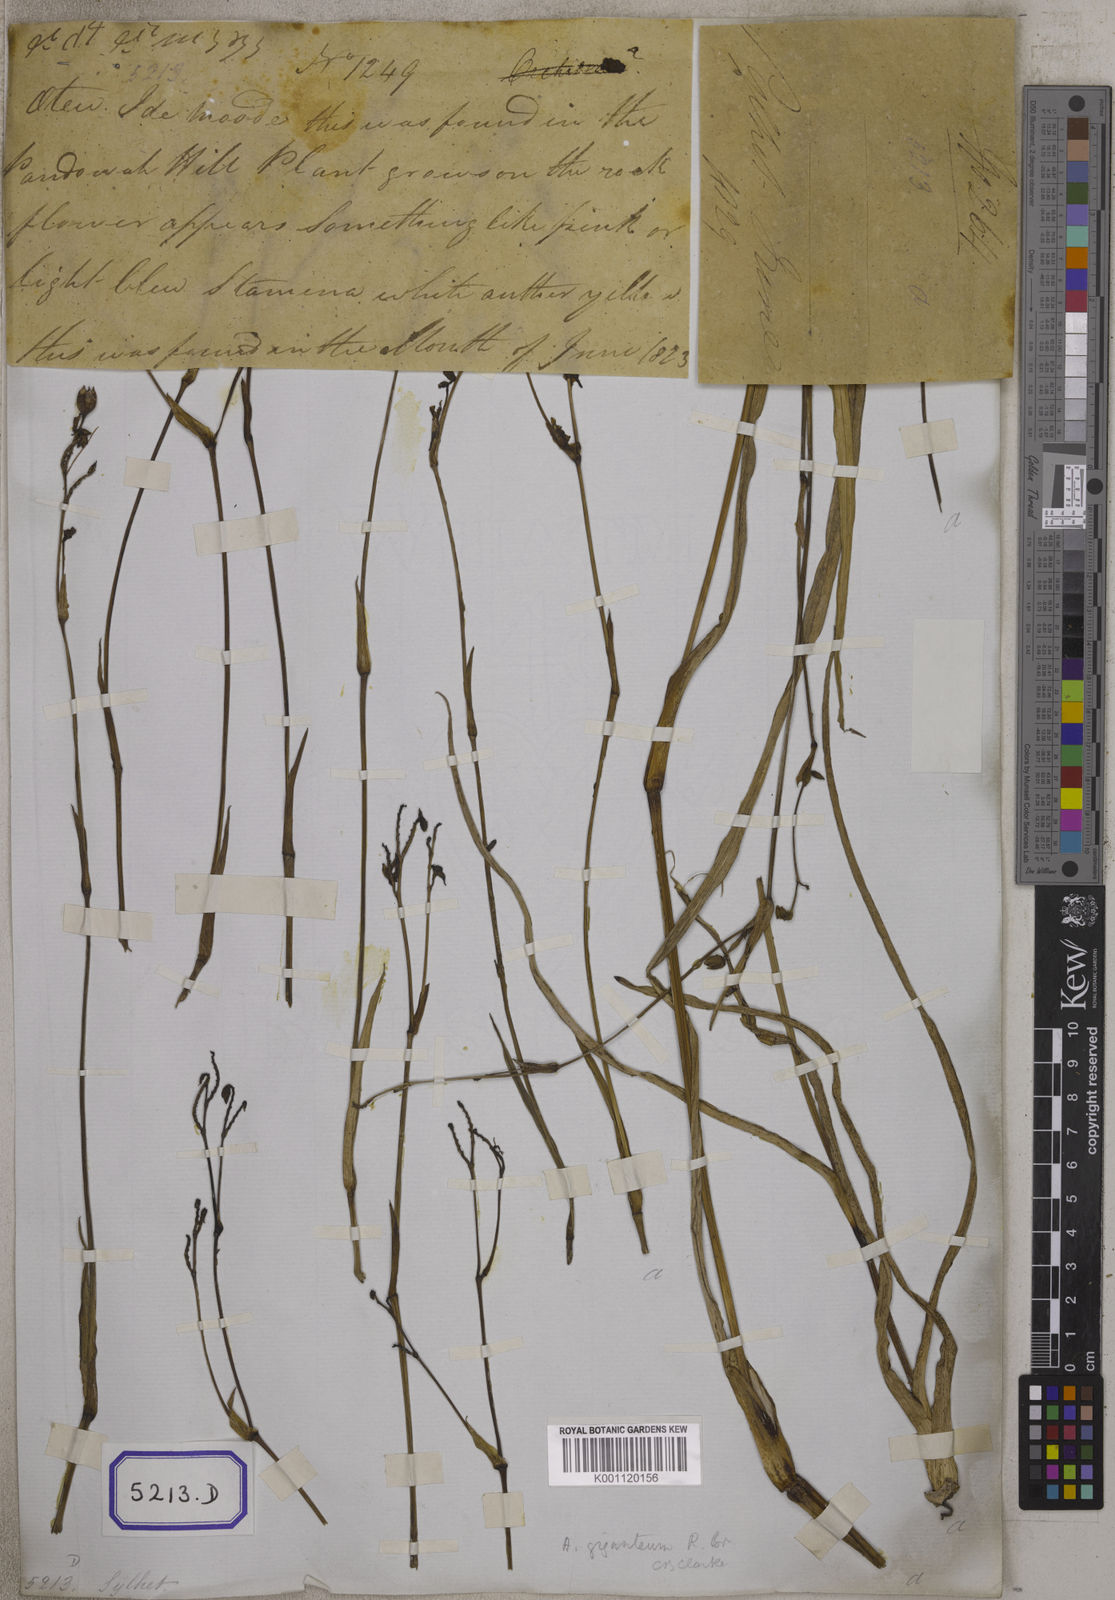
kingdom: Plantae
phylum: Tracheophyta
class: Liliopsida
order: Commelinales
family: Commelinaceae
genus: Aneilema
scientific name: Aneilema
